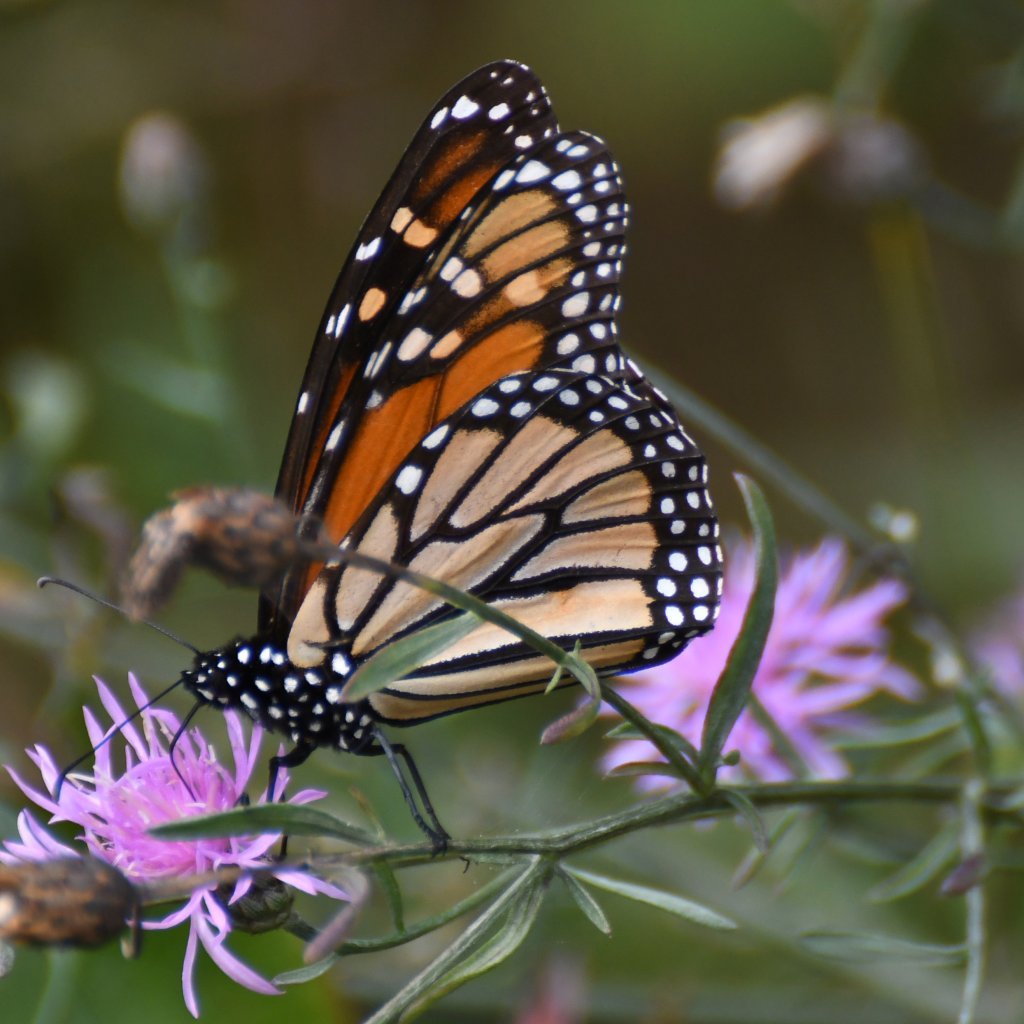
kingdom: Animalia
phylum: Arthropoda
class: Insecta
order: Lepidoptera
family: Nymphalidae
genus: Danaus
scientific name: Danaus plexippus
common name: Monarch
